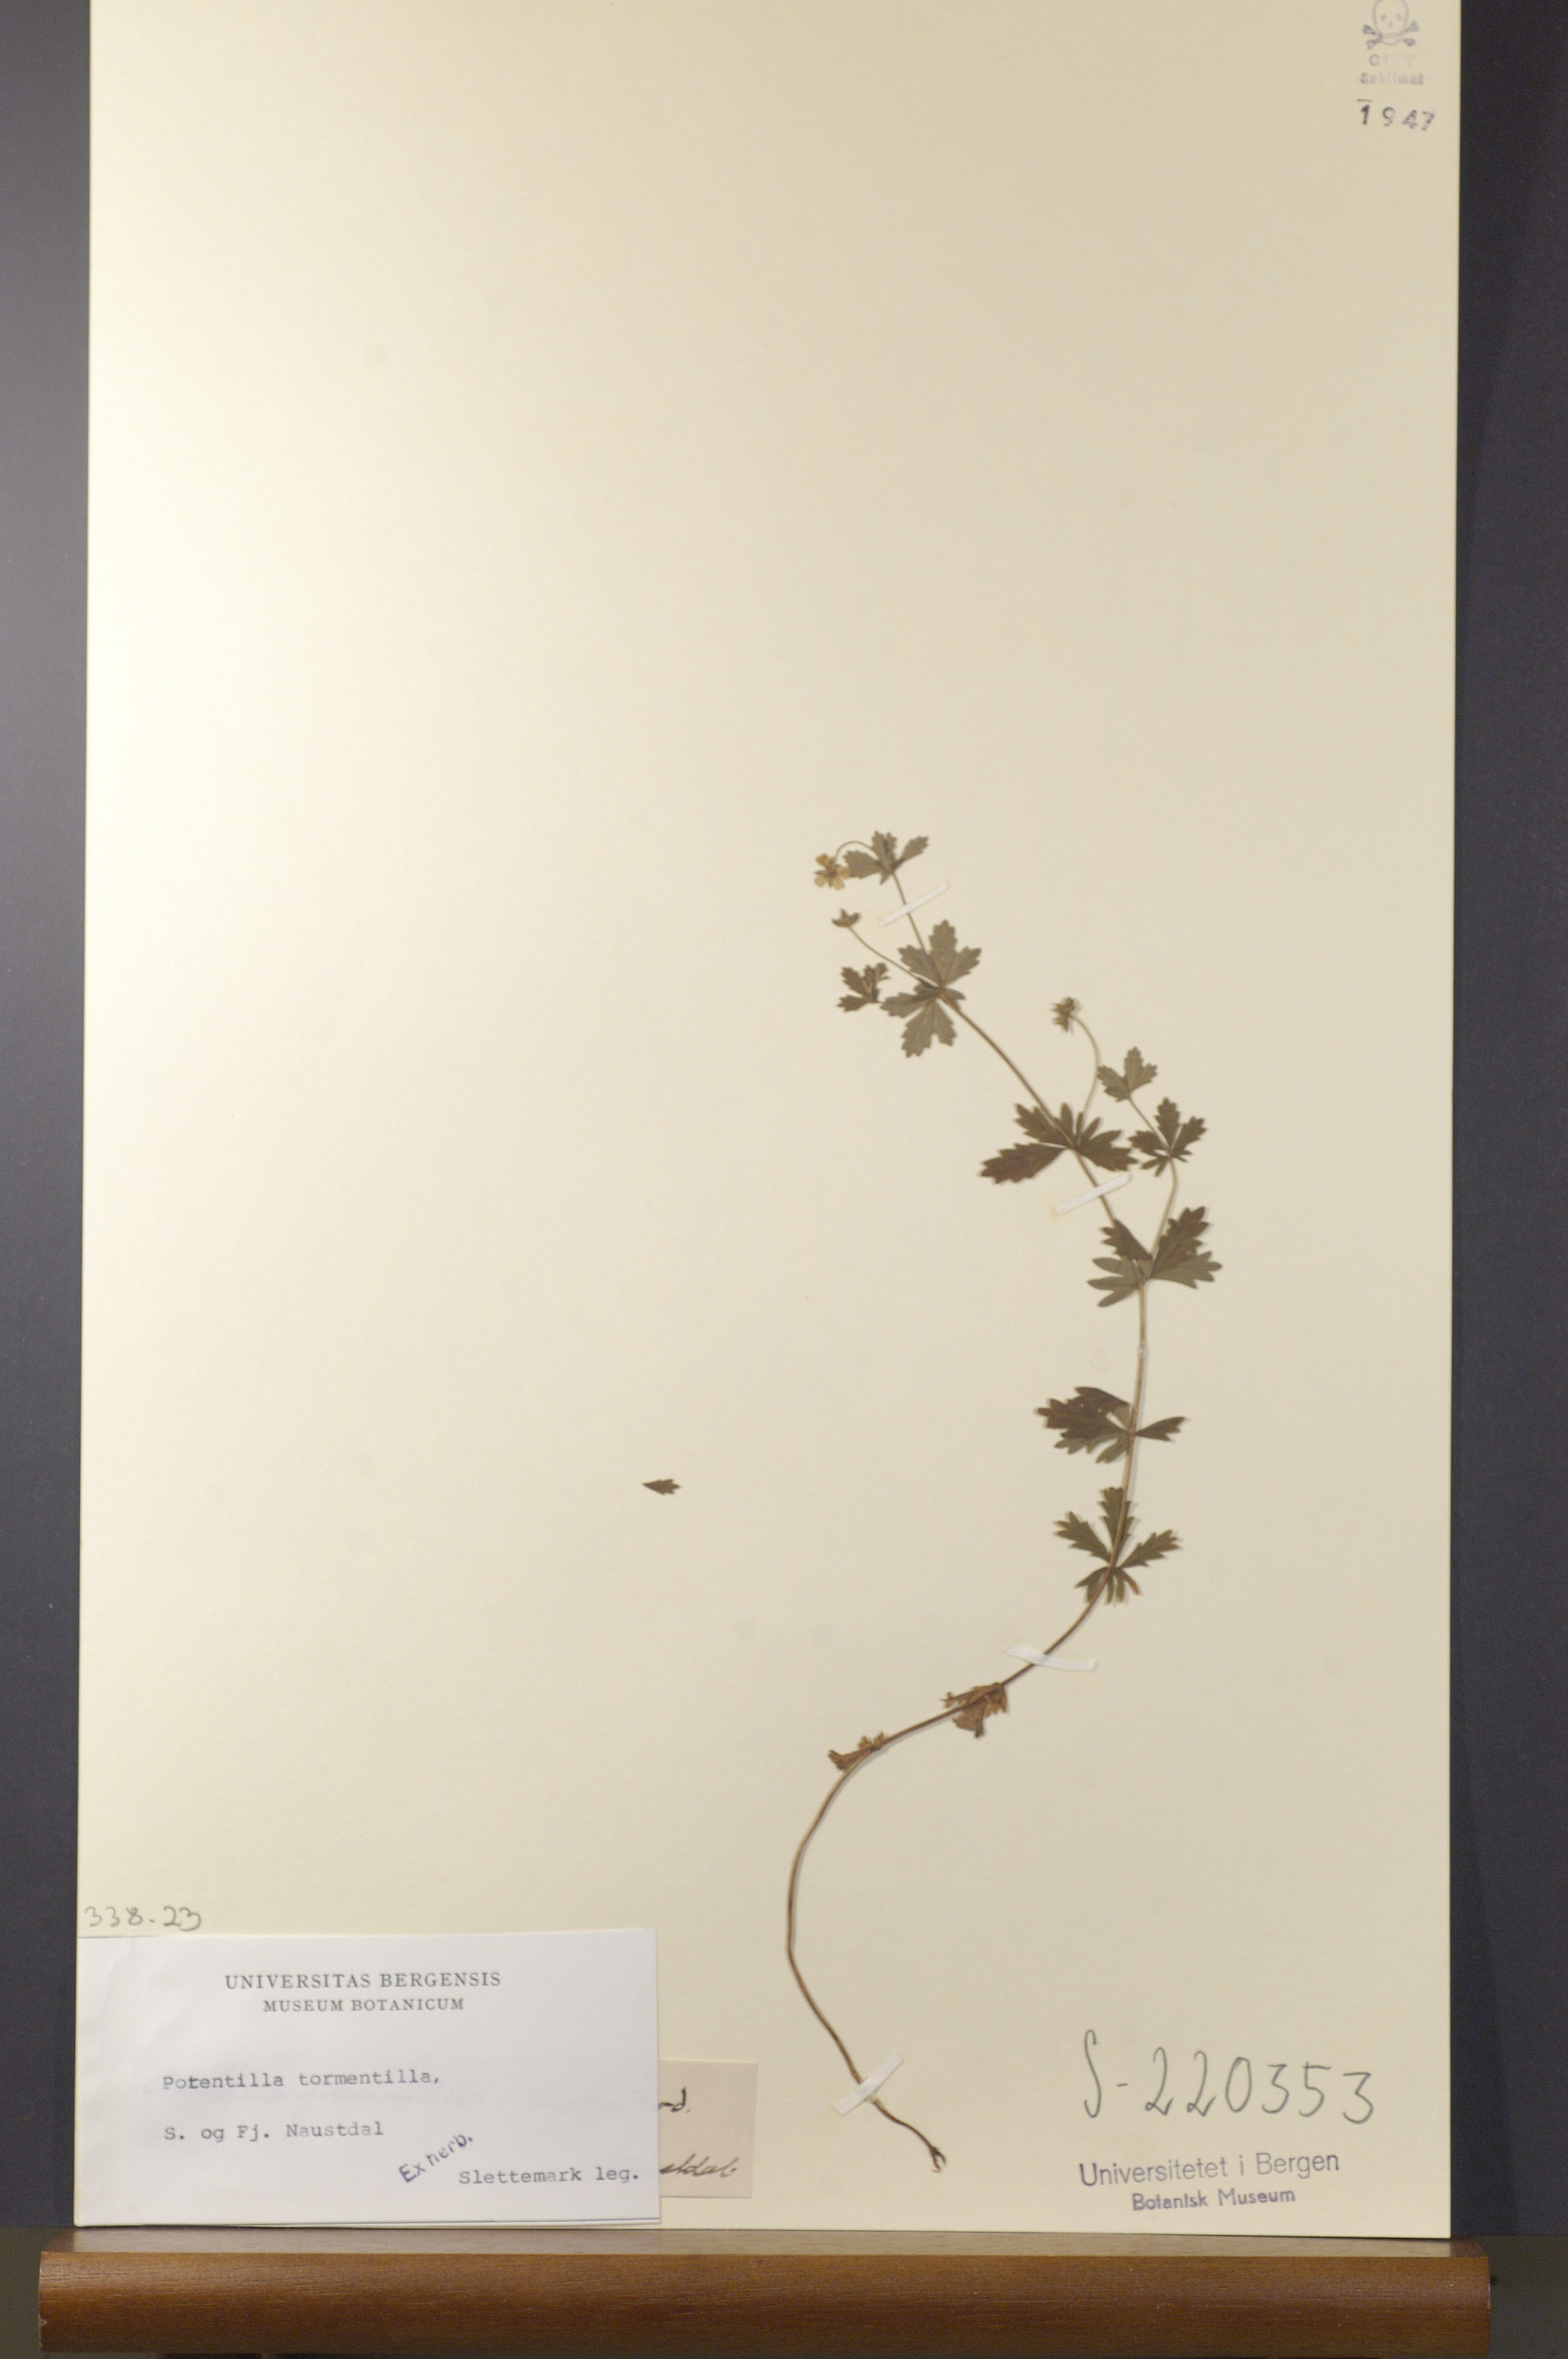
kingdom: Plantae
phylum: Tracheophyta
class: Magnoliopsida
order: Rosales
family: Rosaceae
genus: Potentilla
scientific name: Potentilla erecta
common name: Tormentil
